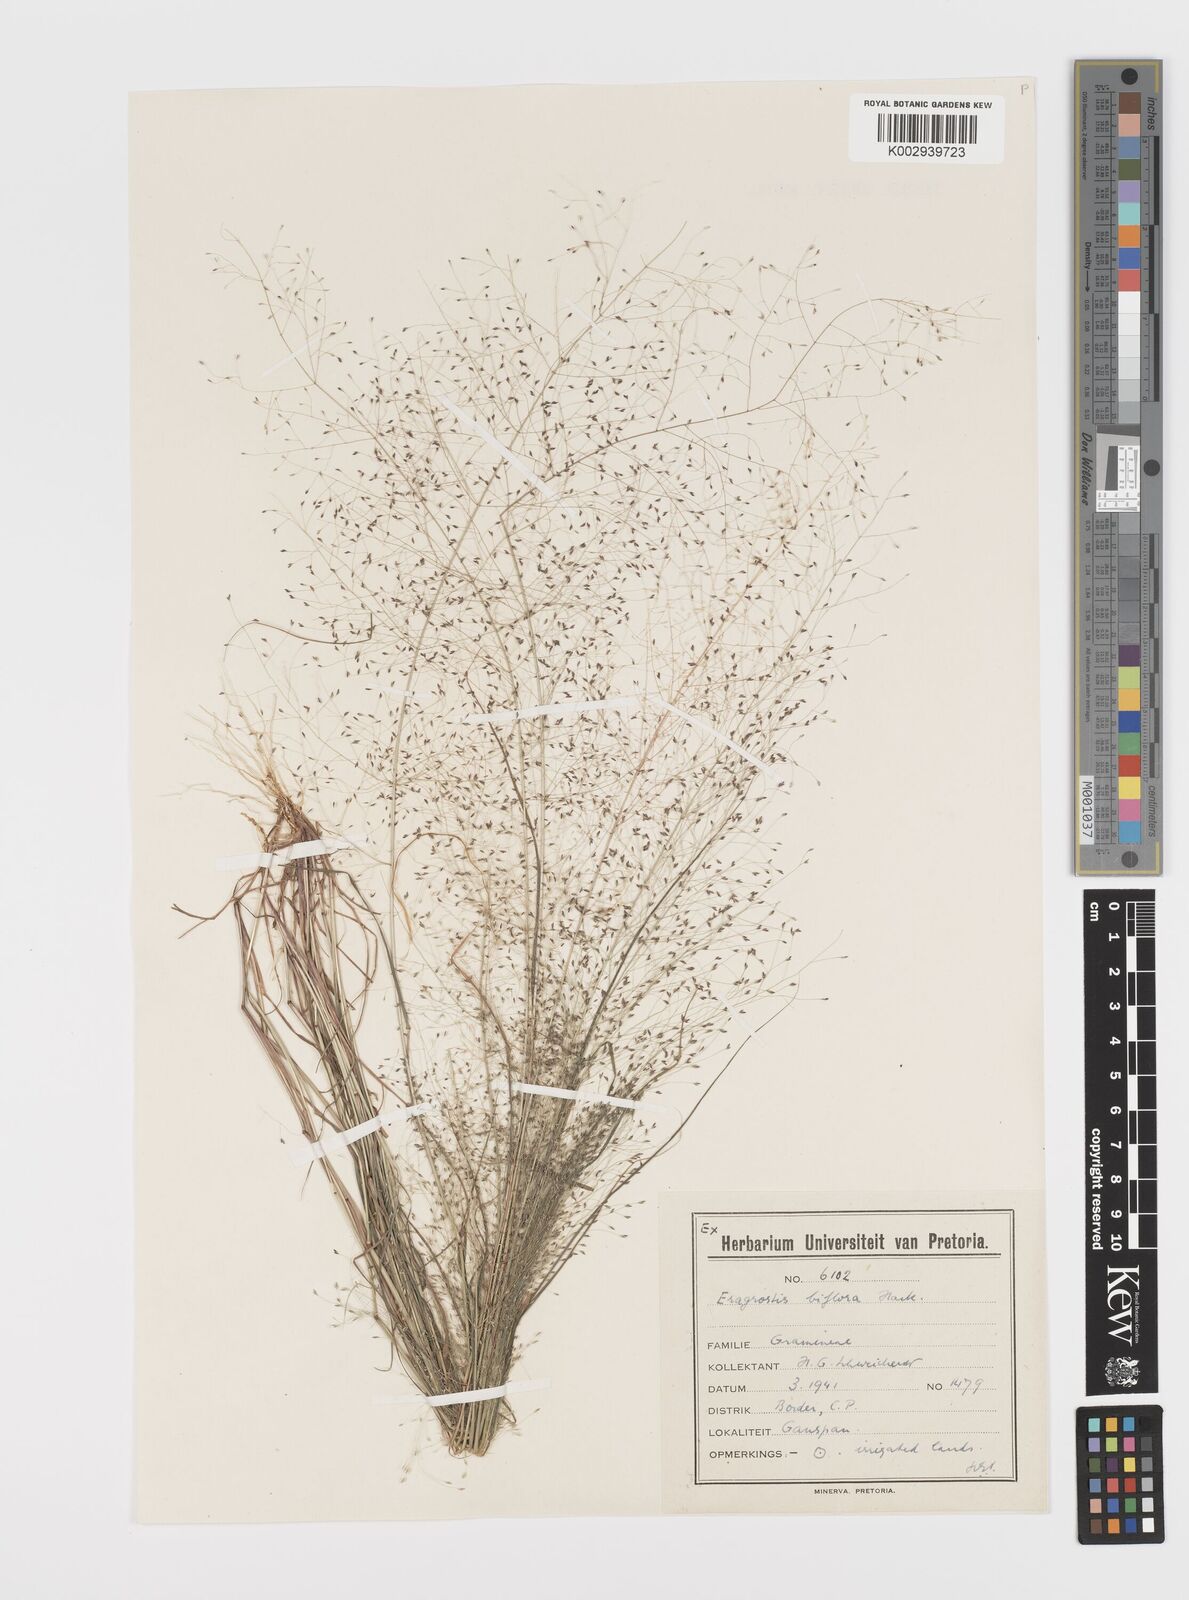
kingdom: Plantae
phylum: Tracheophyta
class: Liliopsida
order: Poales
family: Poaceae
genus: Eragrostis
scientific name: Eragrostis biflora
